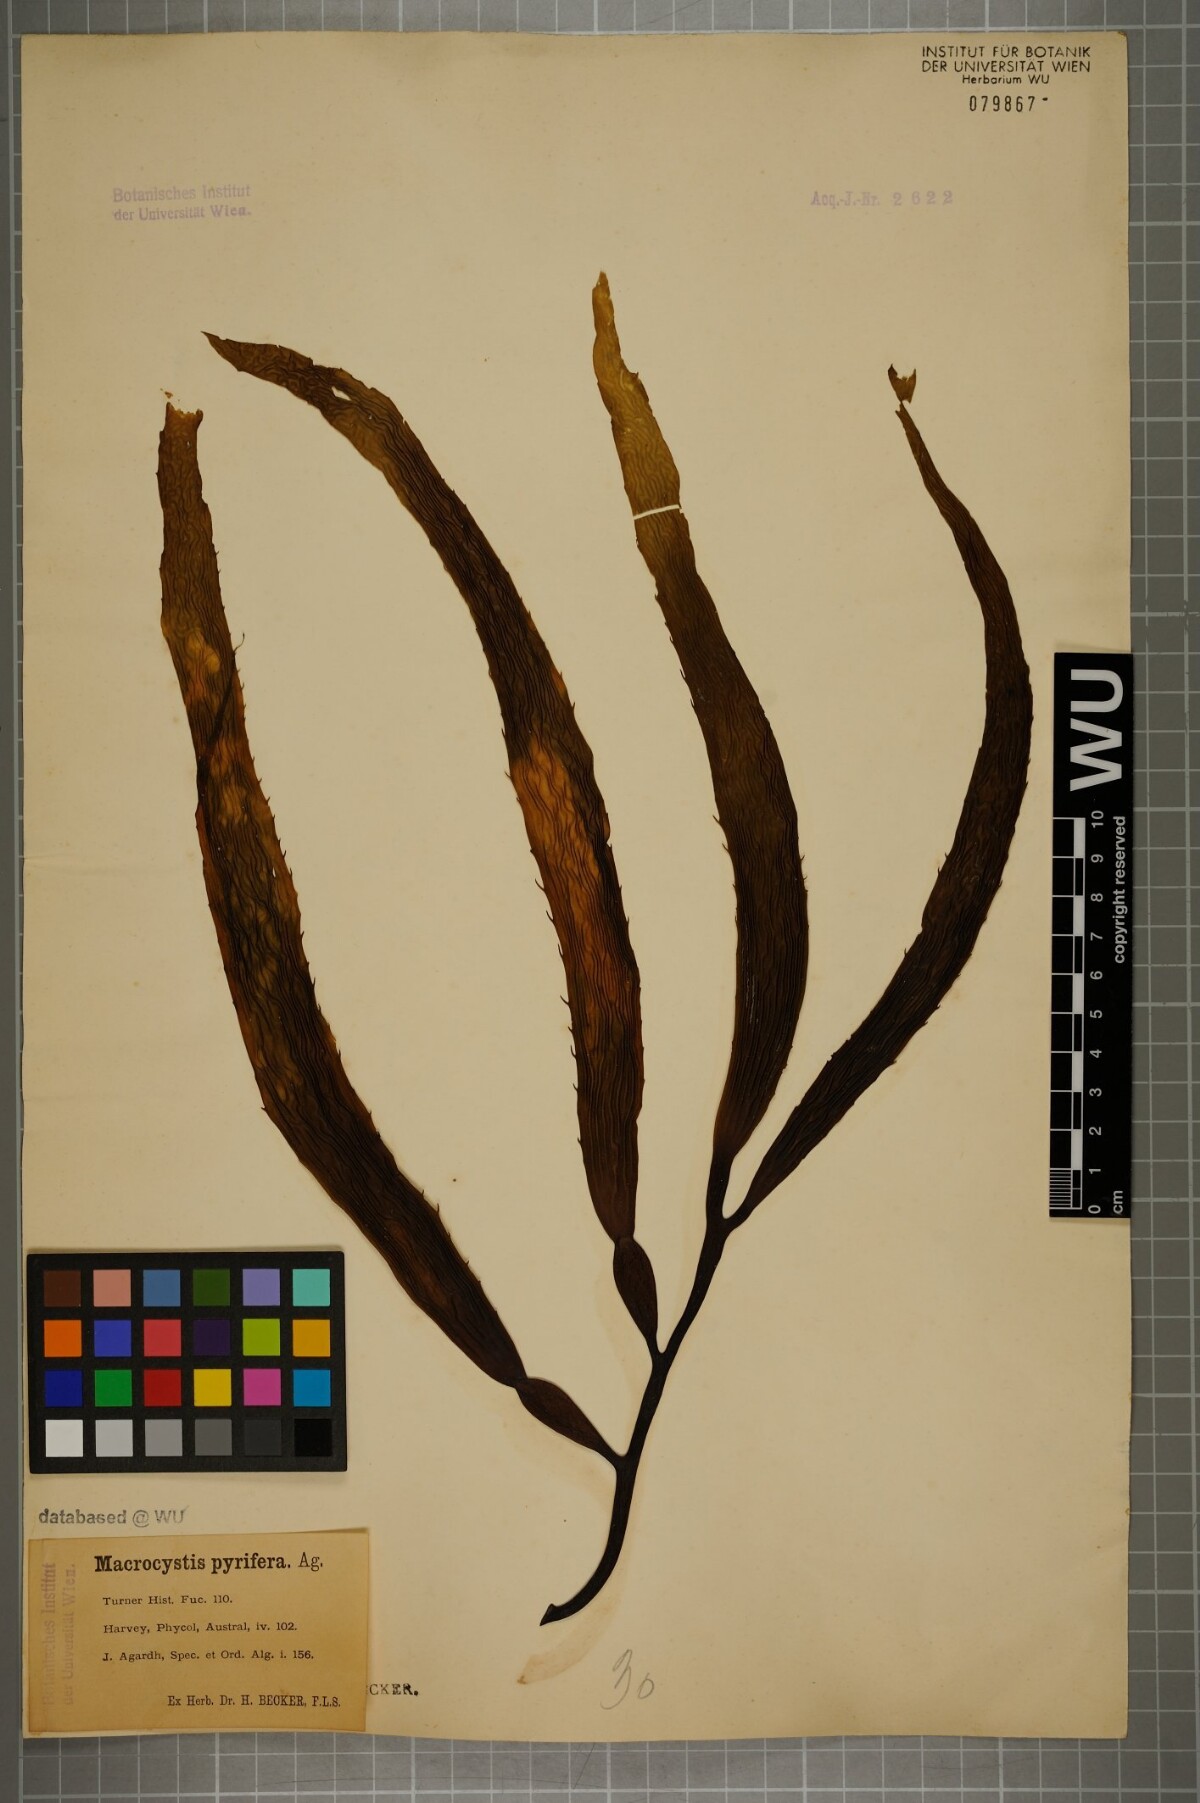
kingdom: Chromista
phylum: Ochrophyta
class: Phaeophyceae
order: Laminariales
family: Laminariaceae
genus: Macrocystis
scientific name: Macrocystis pyrifera
